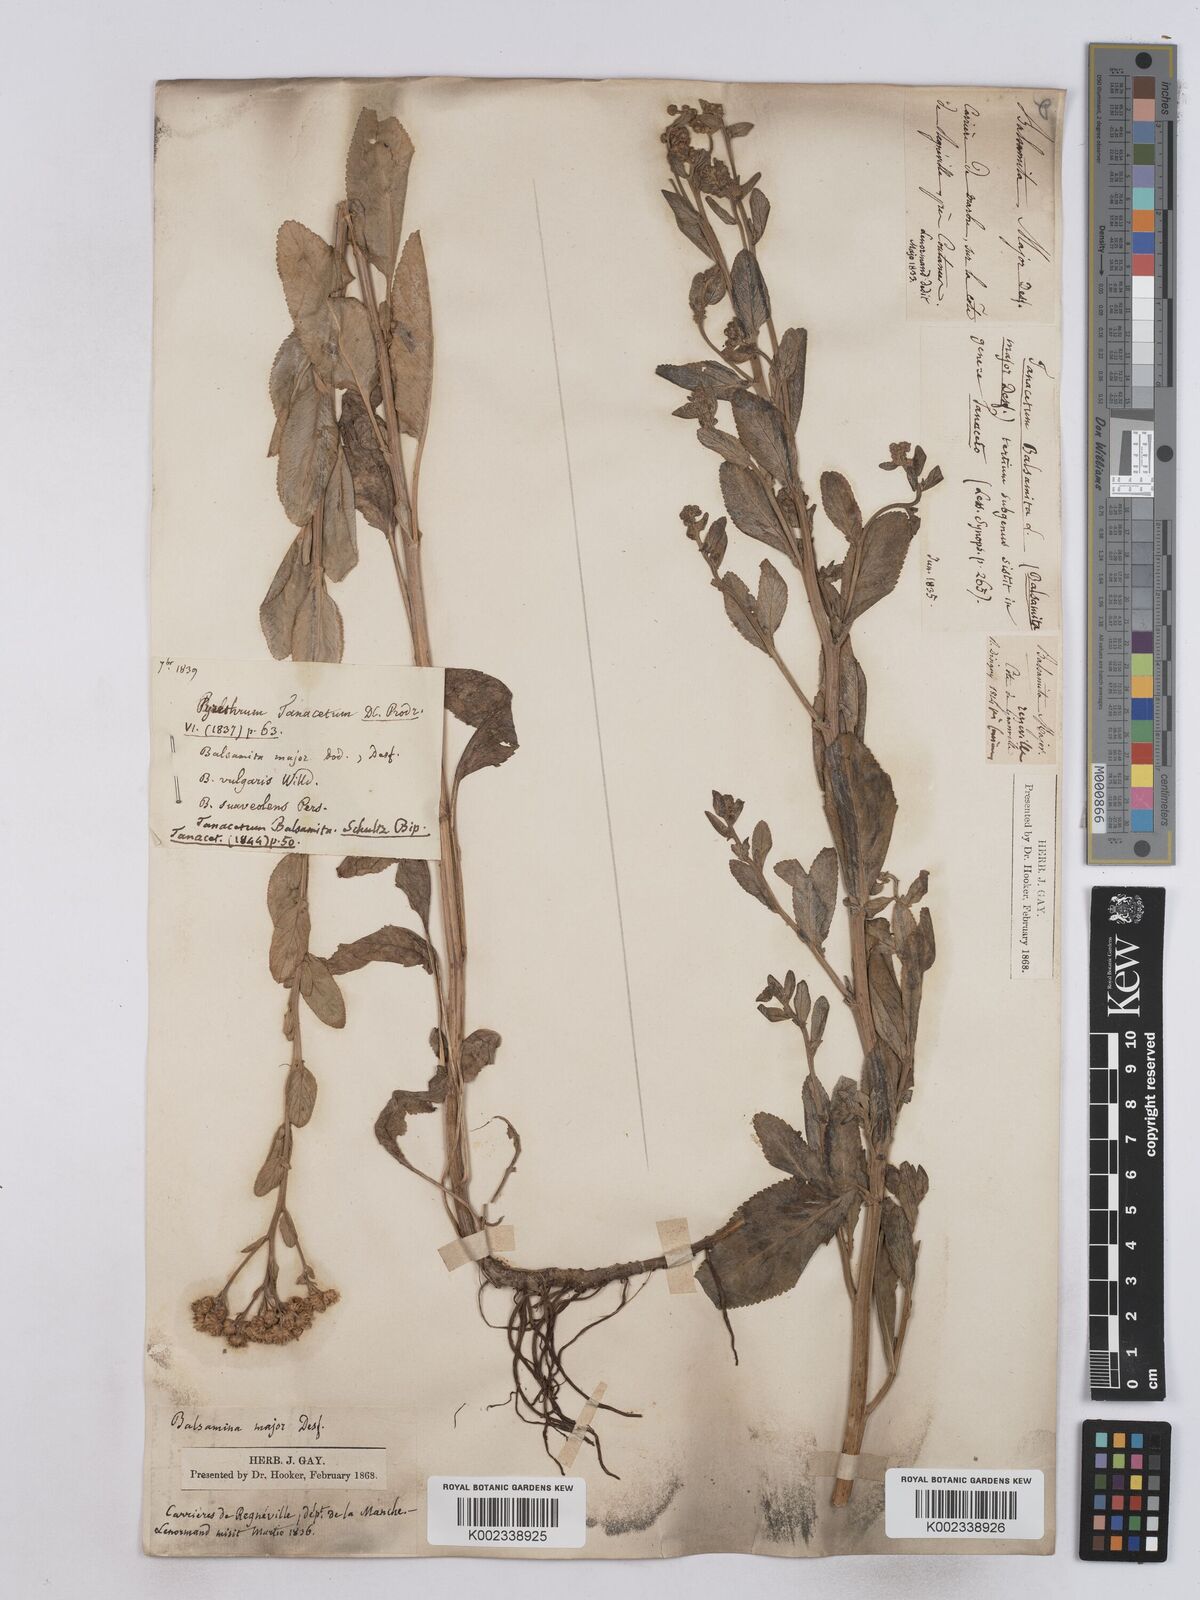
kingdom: Plantae
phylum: Tracheophyta
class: Magnoliopsida
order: Asterales
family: Asteraceae
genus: Tanacetum
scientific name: Tanacetum balsamita
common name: Costmary
